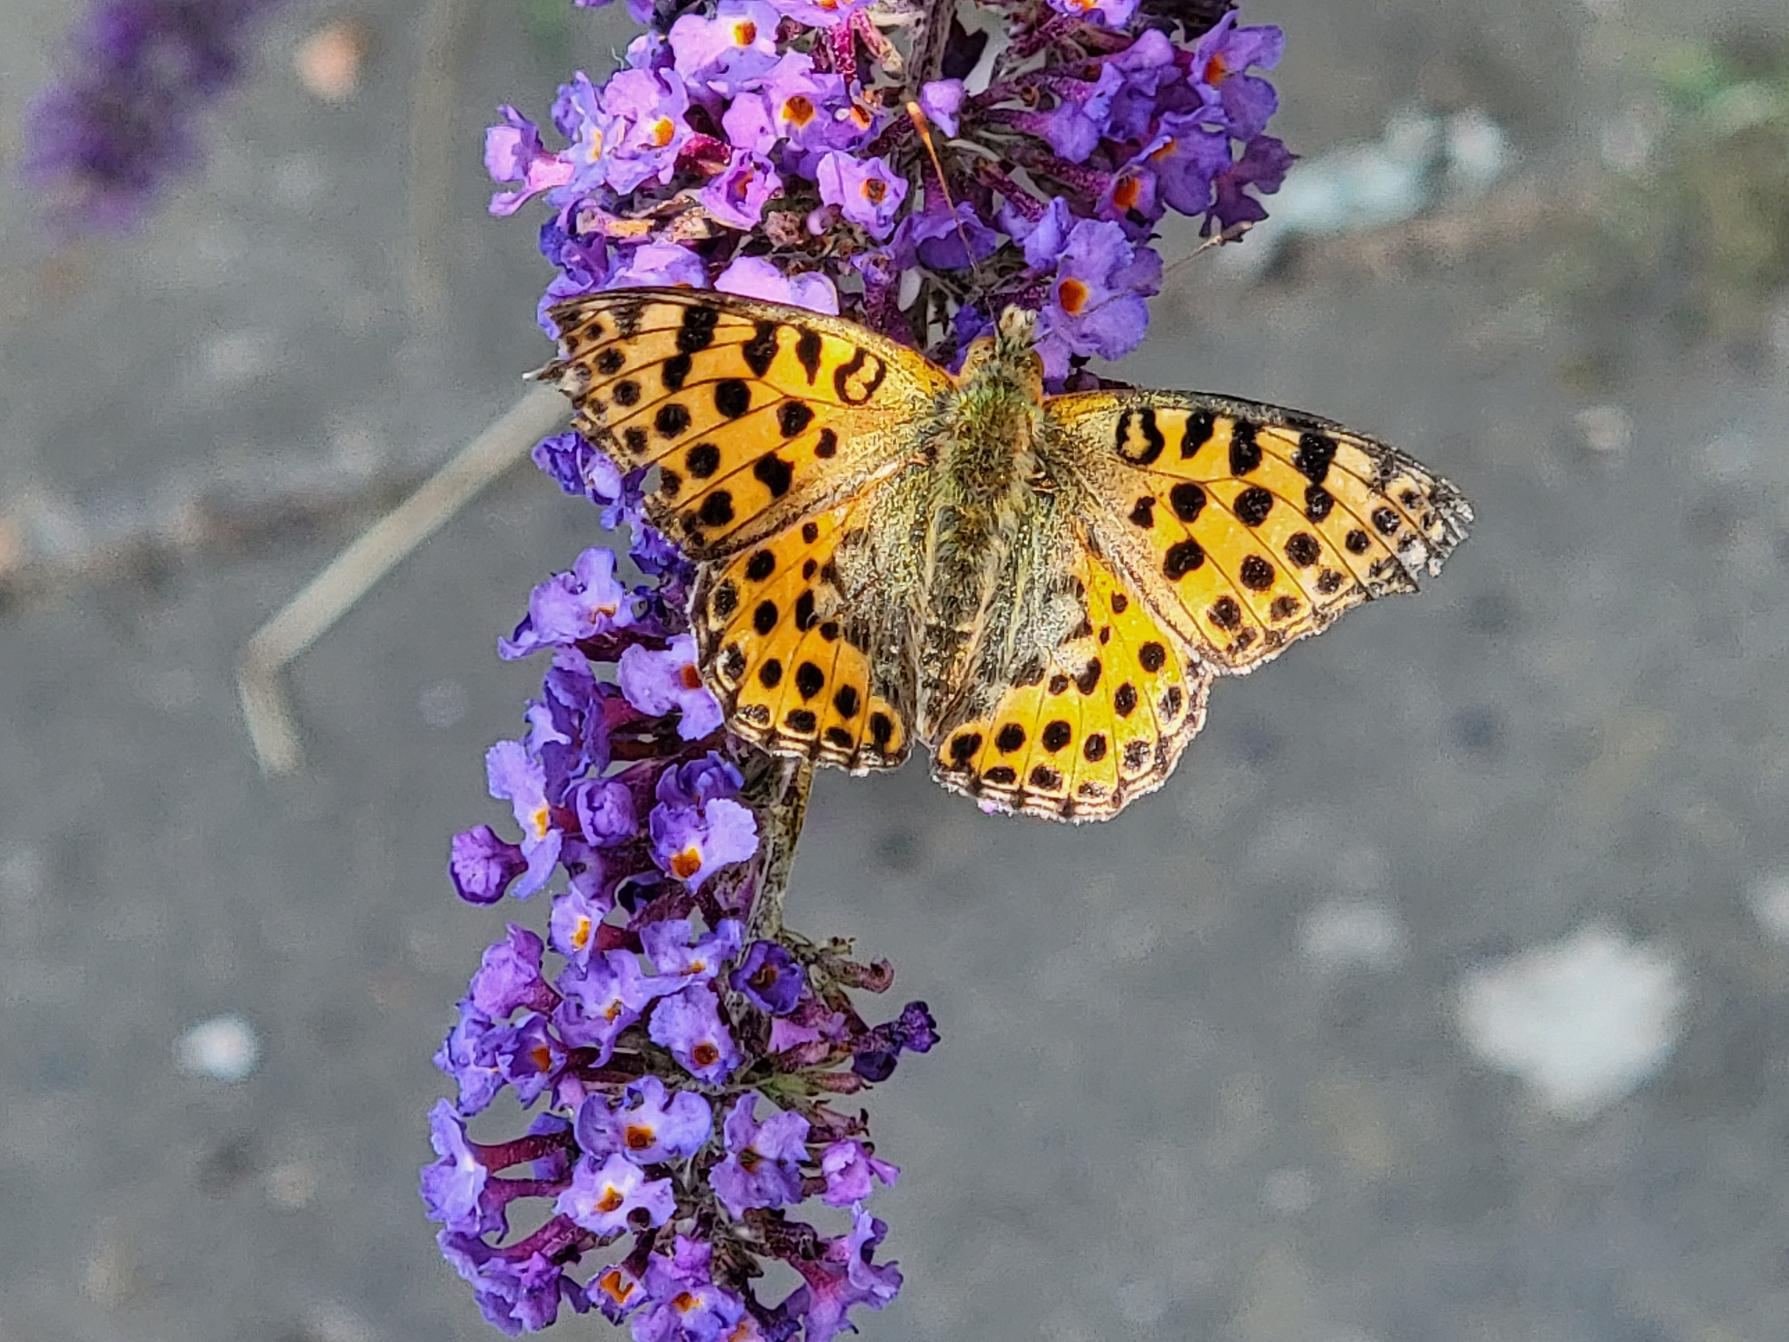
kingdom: Animalia
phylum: Arthropoda
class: Insecta
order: Lepidoptera
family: Nymphalidae
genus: Issoria
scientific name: Issoria lathonia
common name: Storplettet perlemorsommerfugl
